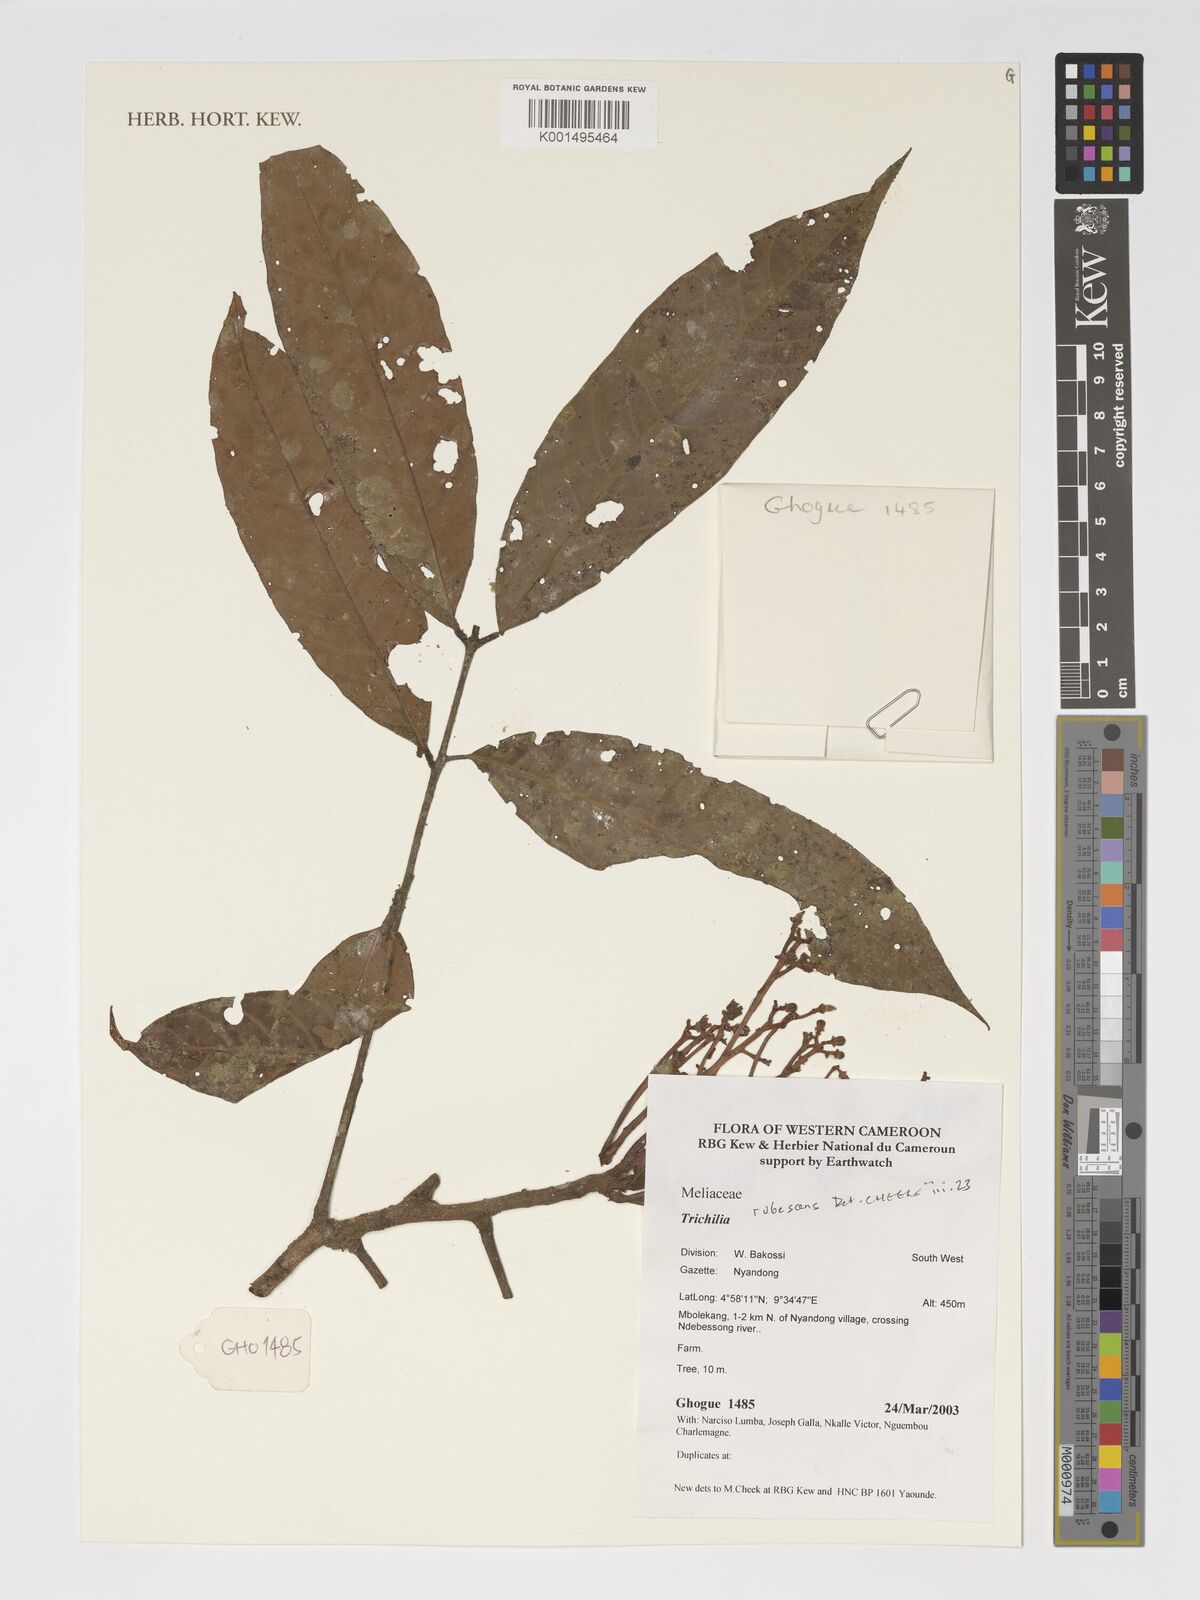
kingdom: Plantae
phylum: Tracheophyta
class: Magnoliopsida
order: Sapindales
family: Meliaceae
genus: Trichilia
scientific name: Trichilia rubescens
